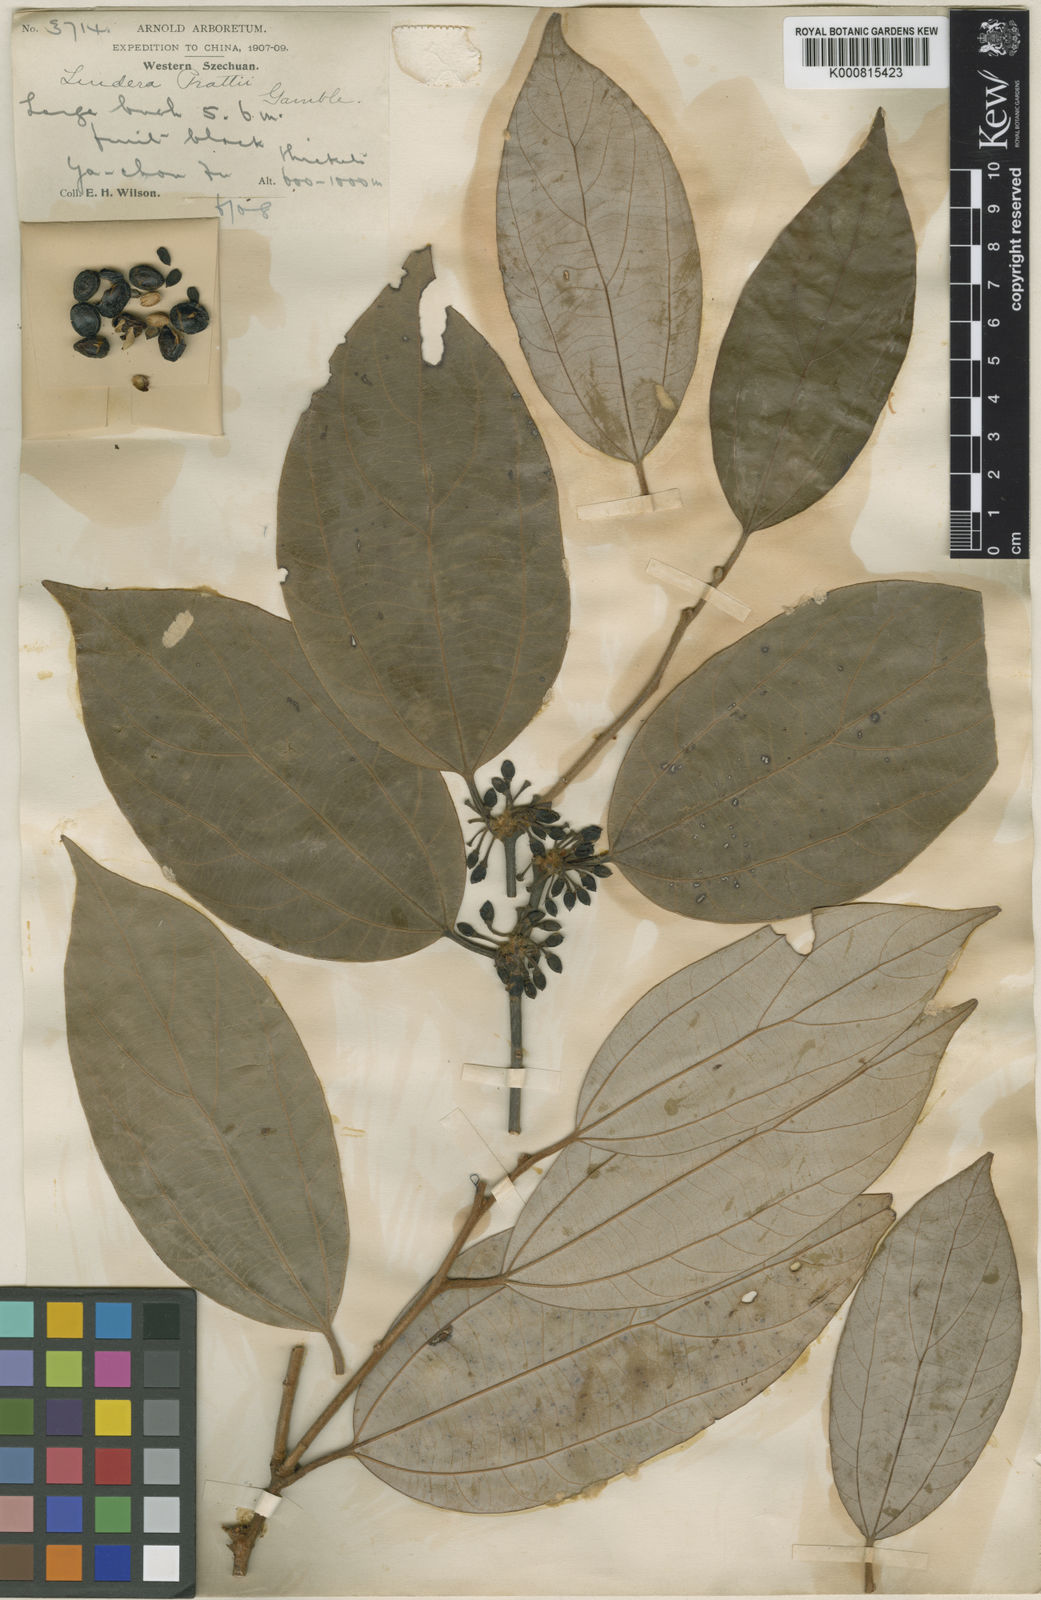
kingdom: Plantae
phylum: Tracheophyta
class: Magnoliopsida
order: Laurales
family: Lauraceae
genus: Lindera
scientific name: Lindera prattii
